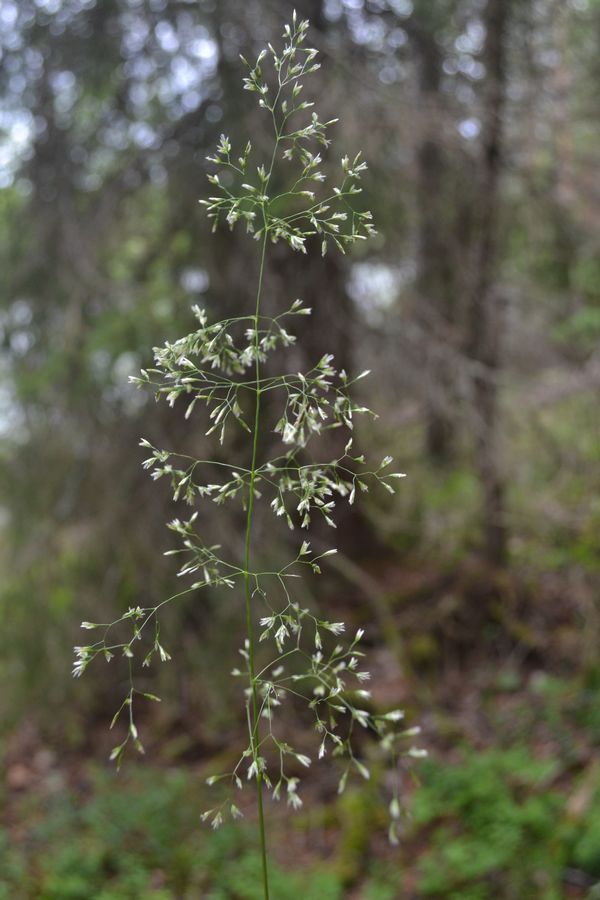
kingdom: Plantae
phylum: Tracheophyta
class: Liliopsida
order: Poales
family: Poaceae
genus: Avenella
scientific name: Avenella flexuosa
